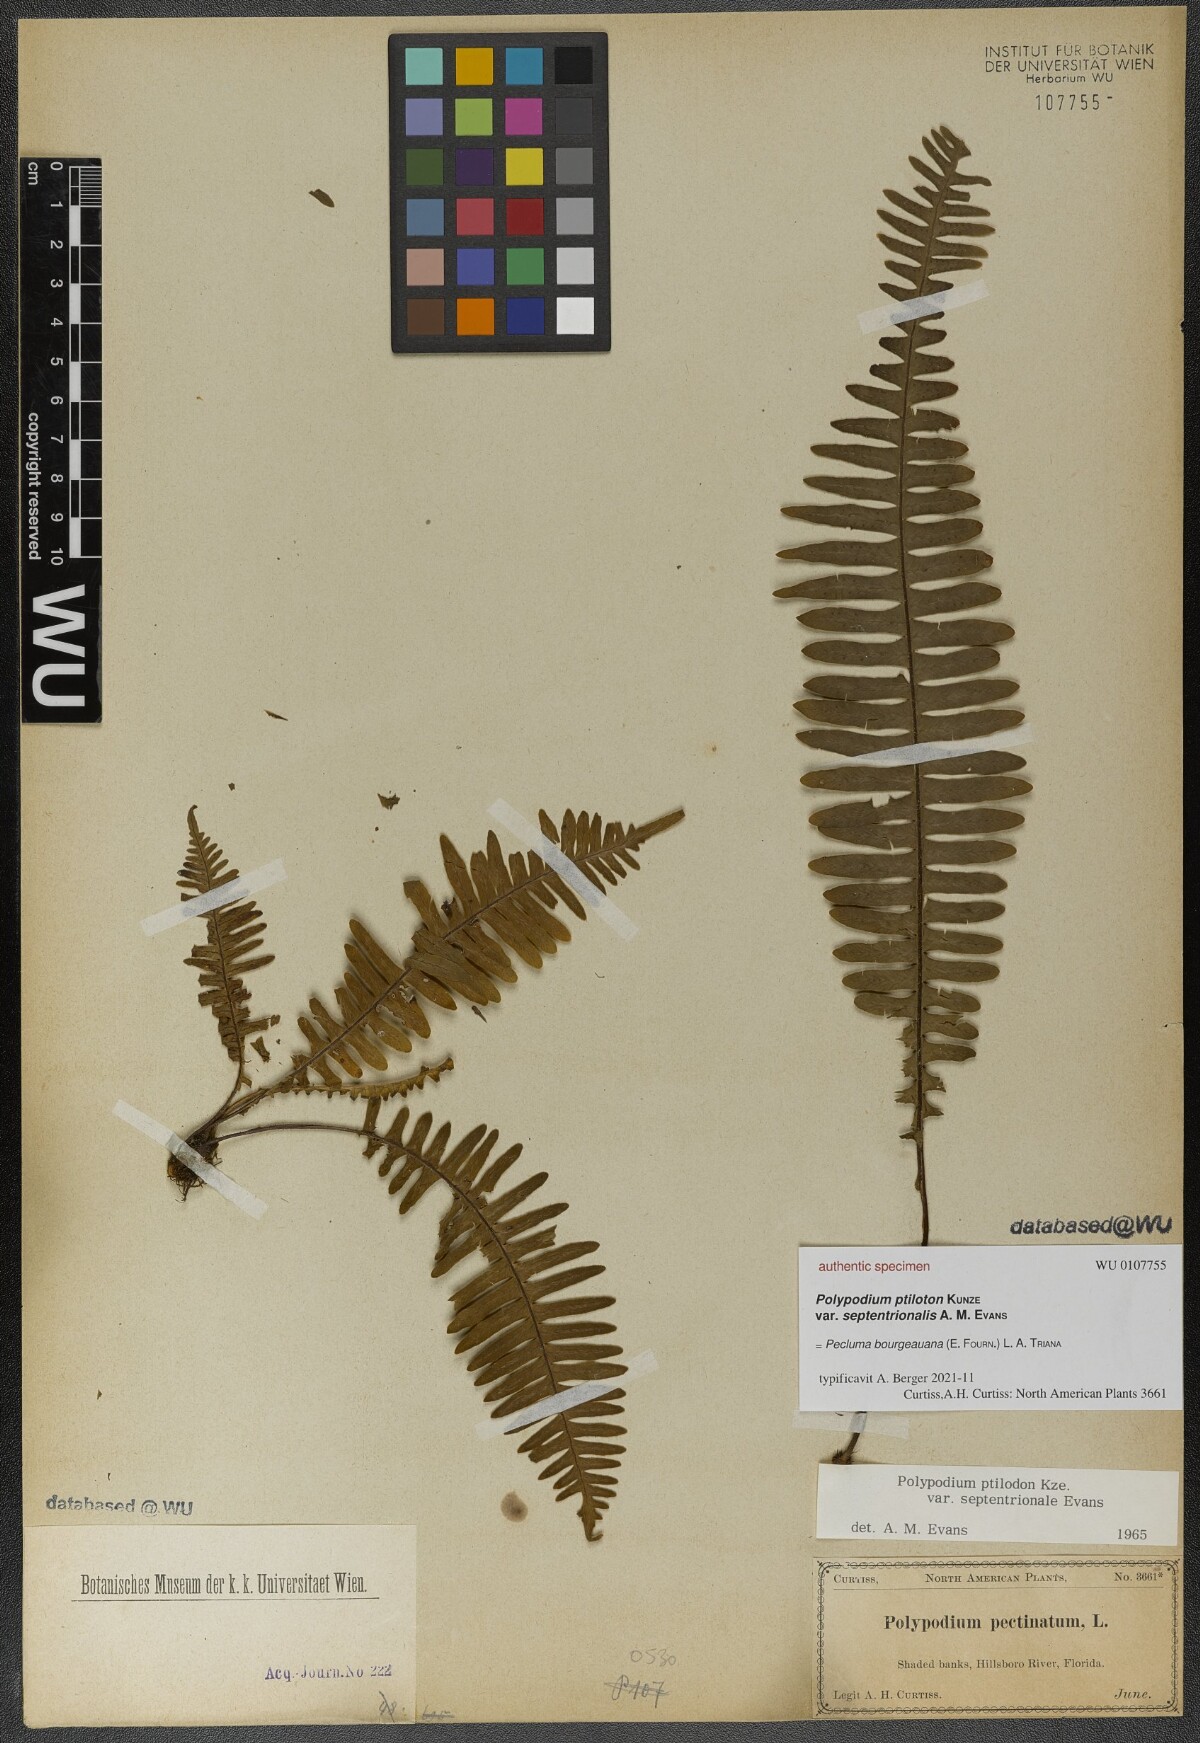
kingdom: Plantae
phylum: Tracheophyta
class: Polypodiopsida
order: Polypodiales
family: Polypodiaceae
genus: Pecluma
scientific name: Pecluma bourgeauana
